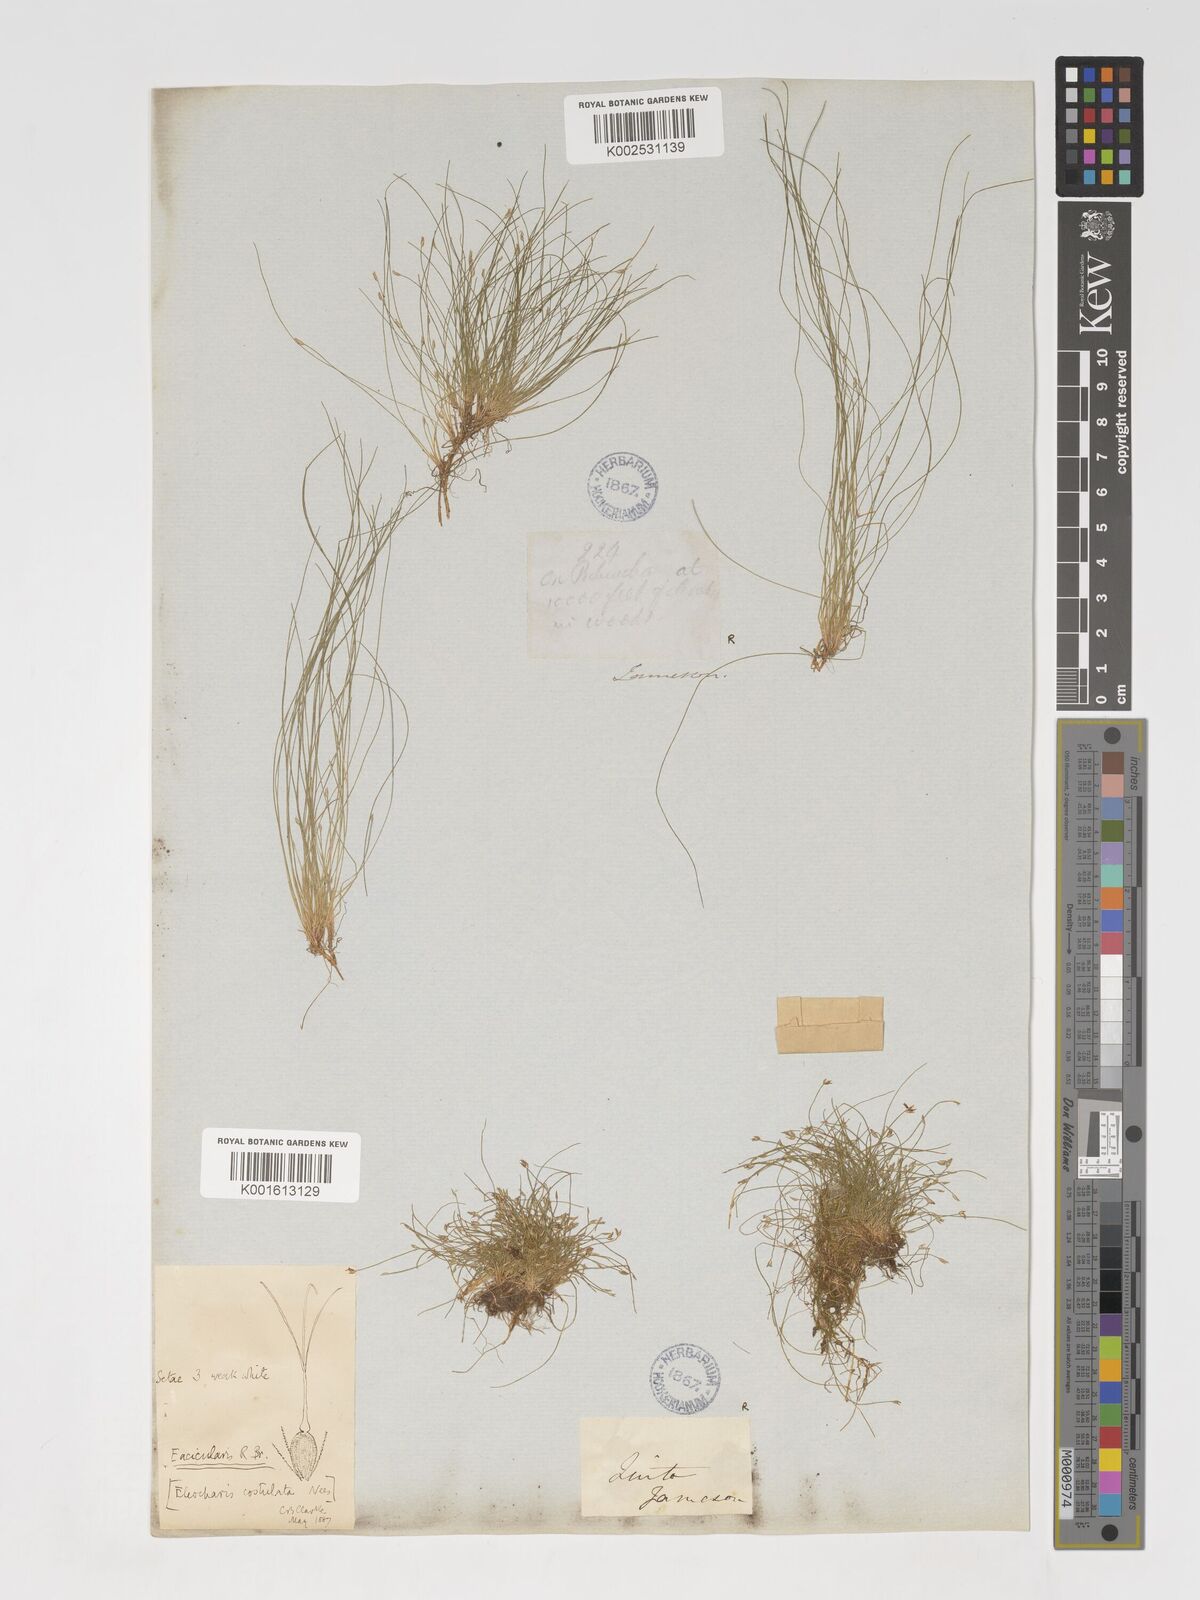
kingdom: Plantae
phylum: Tracheophyta
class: Liliopsida
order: Poales
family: Cyperaceae
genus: Eleocharis
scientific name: Eleocharis acicularis
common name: Needle spike-rush
